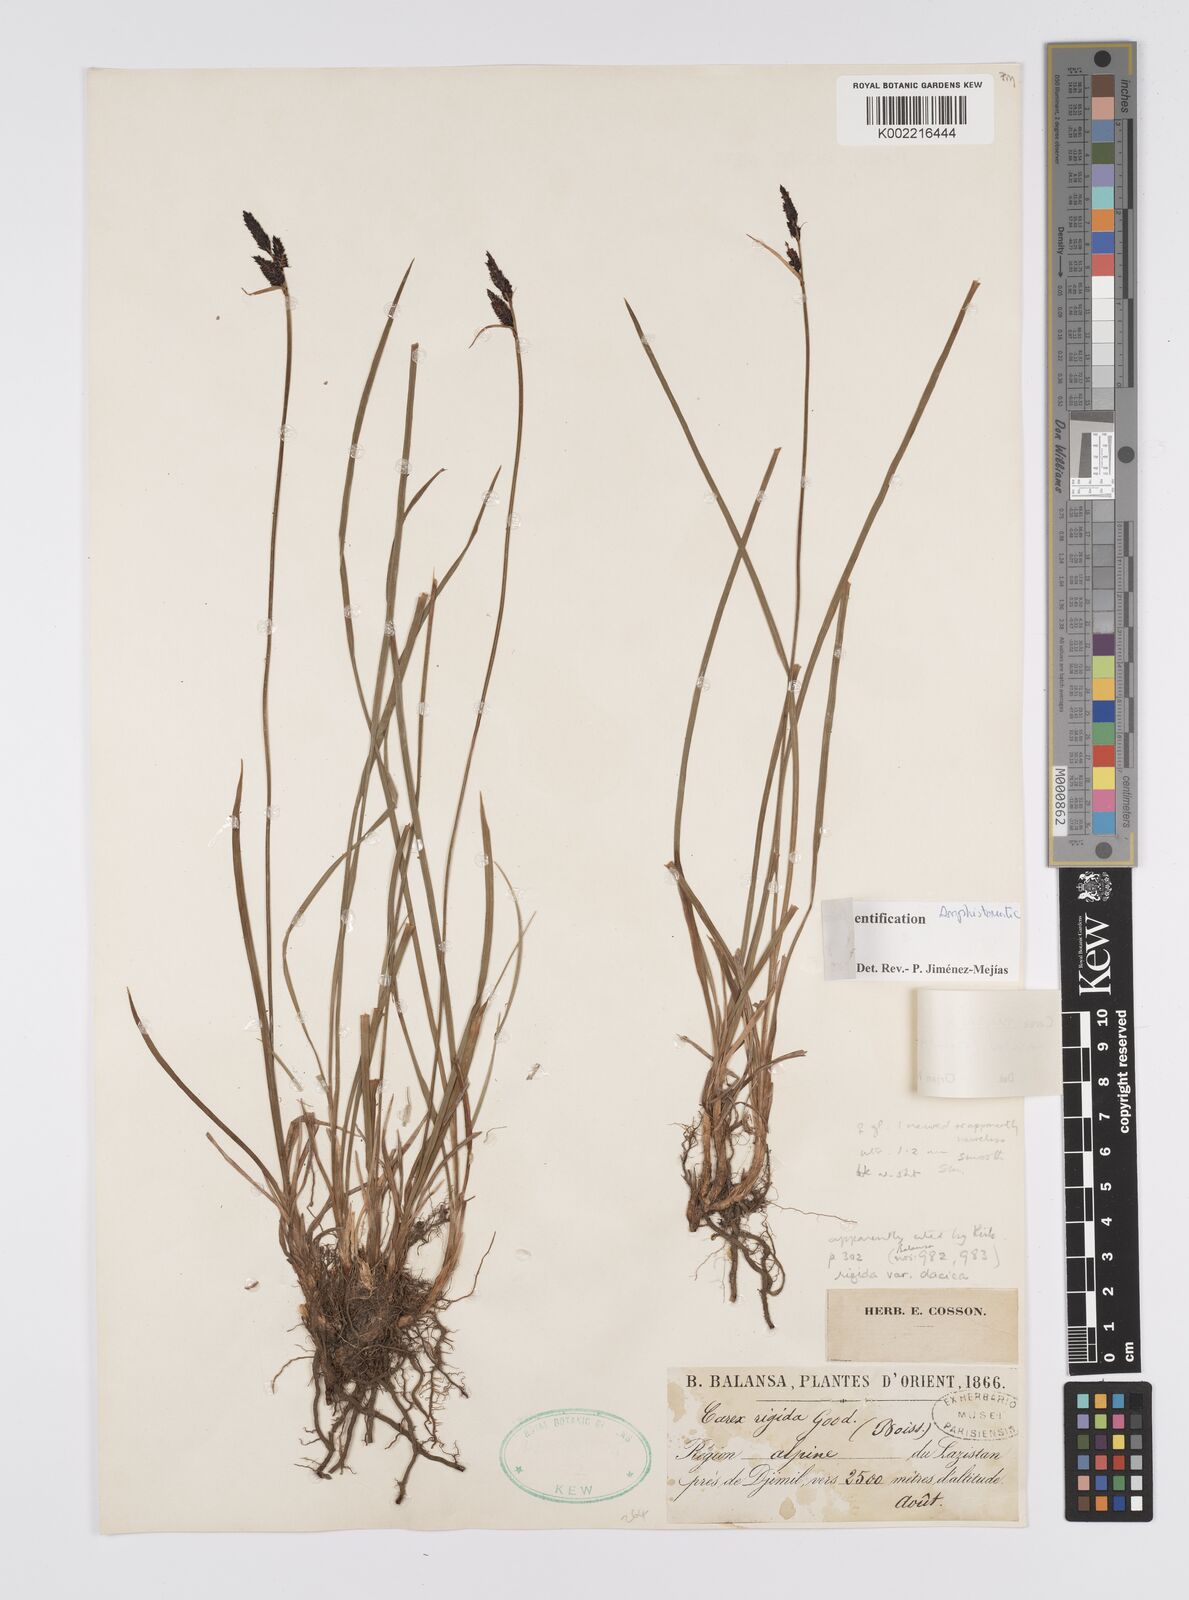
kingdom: Plantae
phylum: Tracheophyta
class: Liliopsida
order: Poales
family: Cyperaceae
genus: Carex
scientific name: Carex nigra
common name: Common sedge
